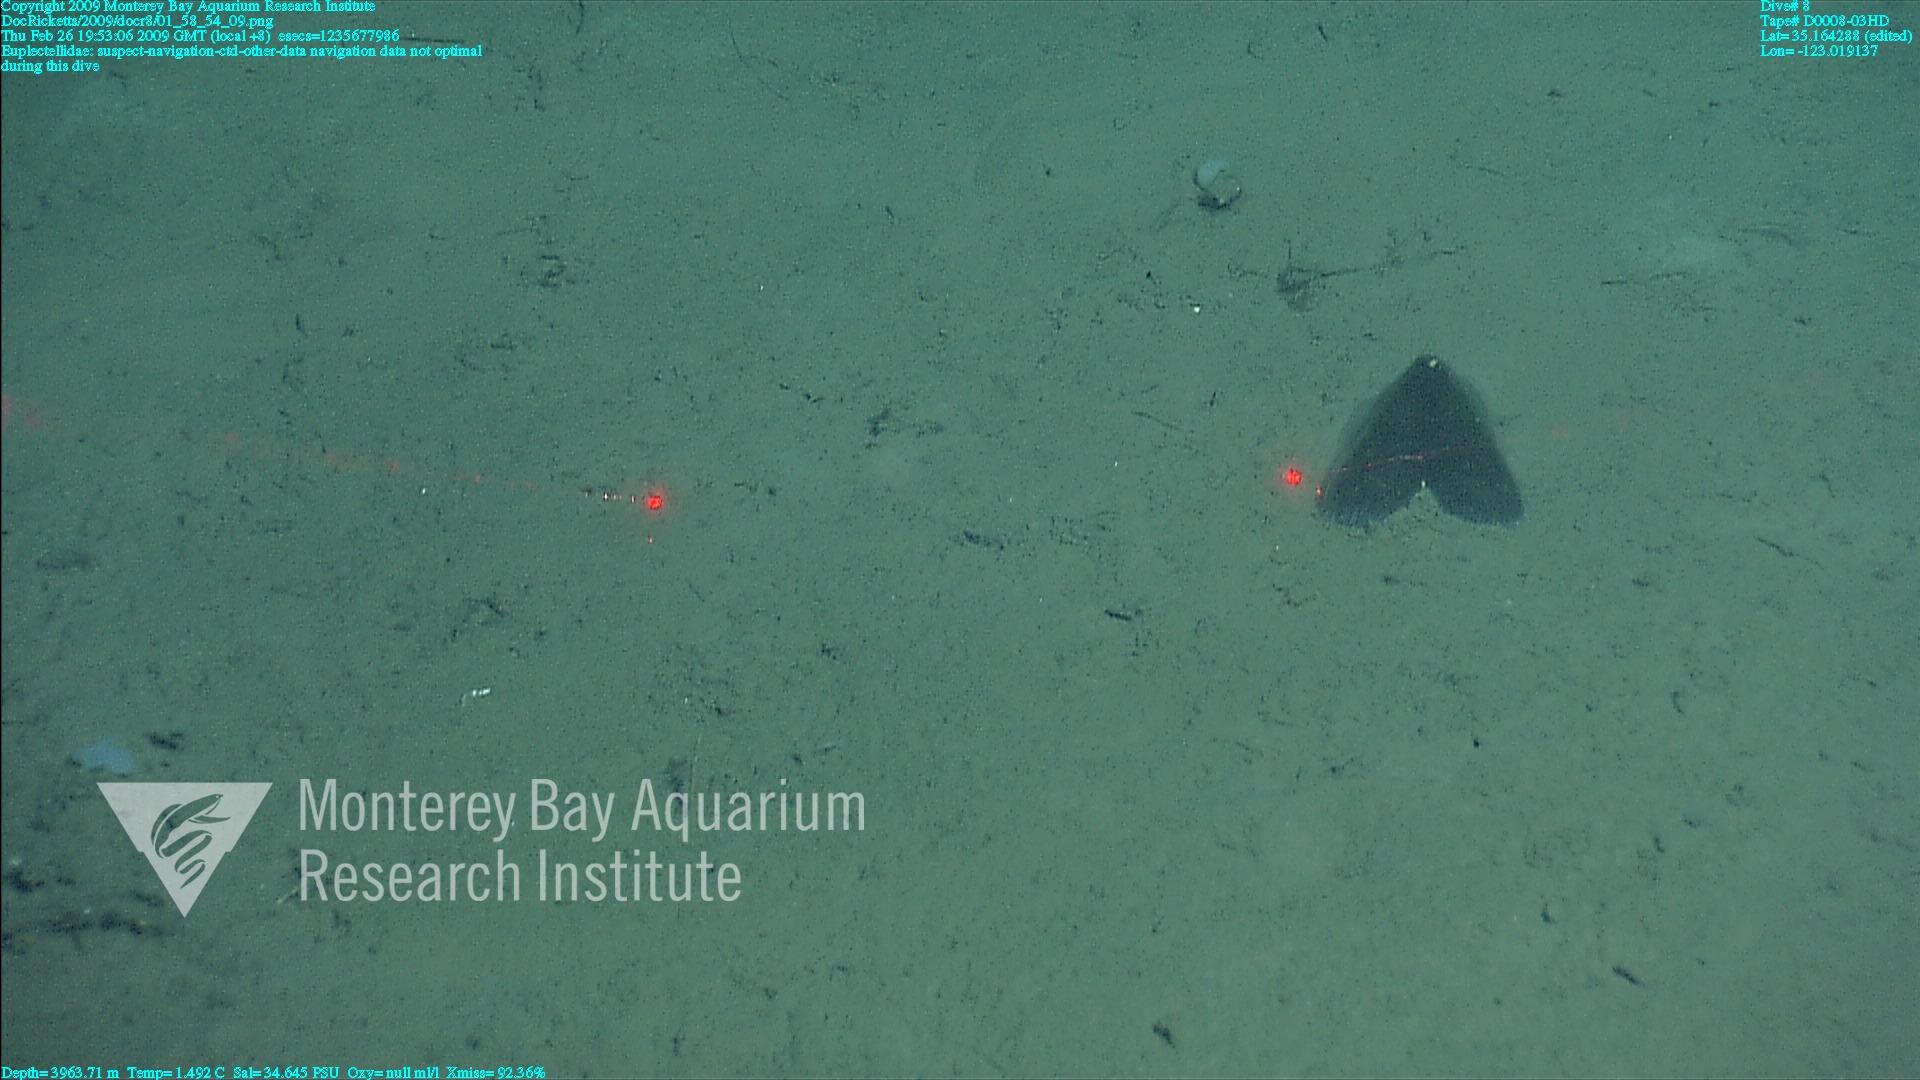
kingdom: Animalia
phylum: Porifera
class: Hexactinellida
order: Lyssacinosida
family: Euplectellidae
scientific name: Euplectellidae
